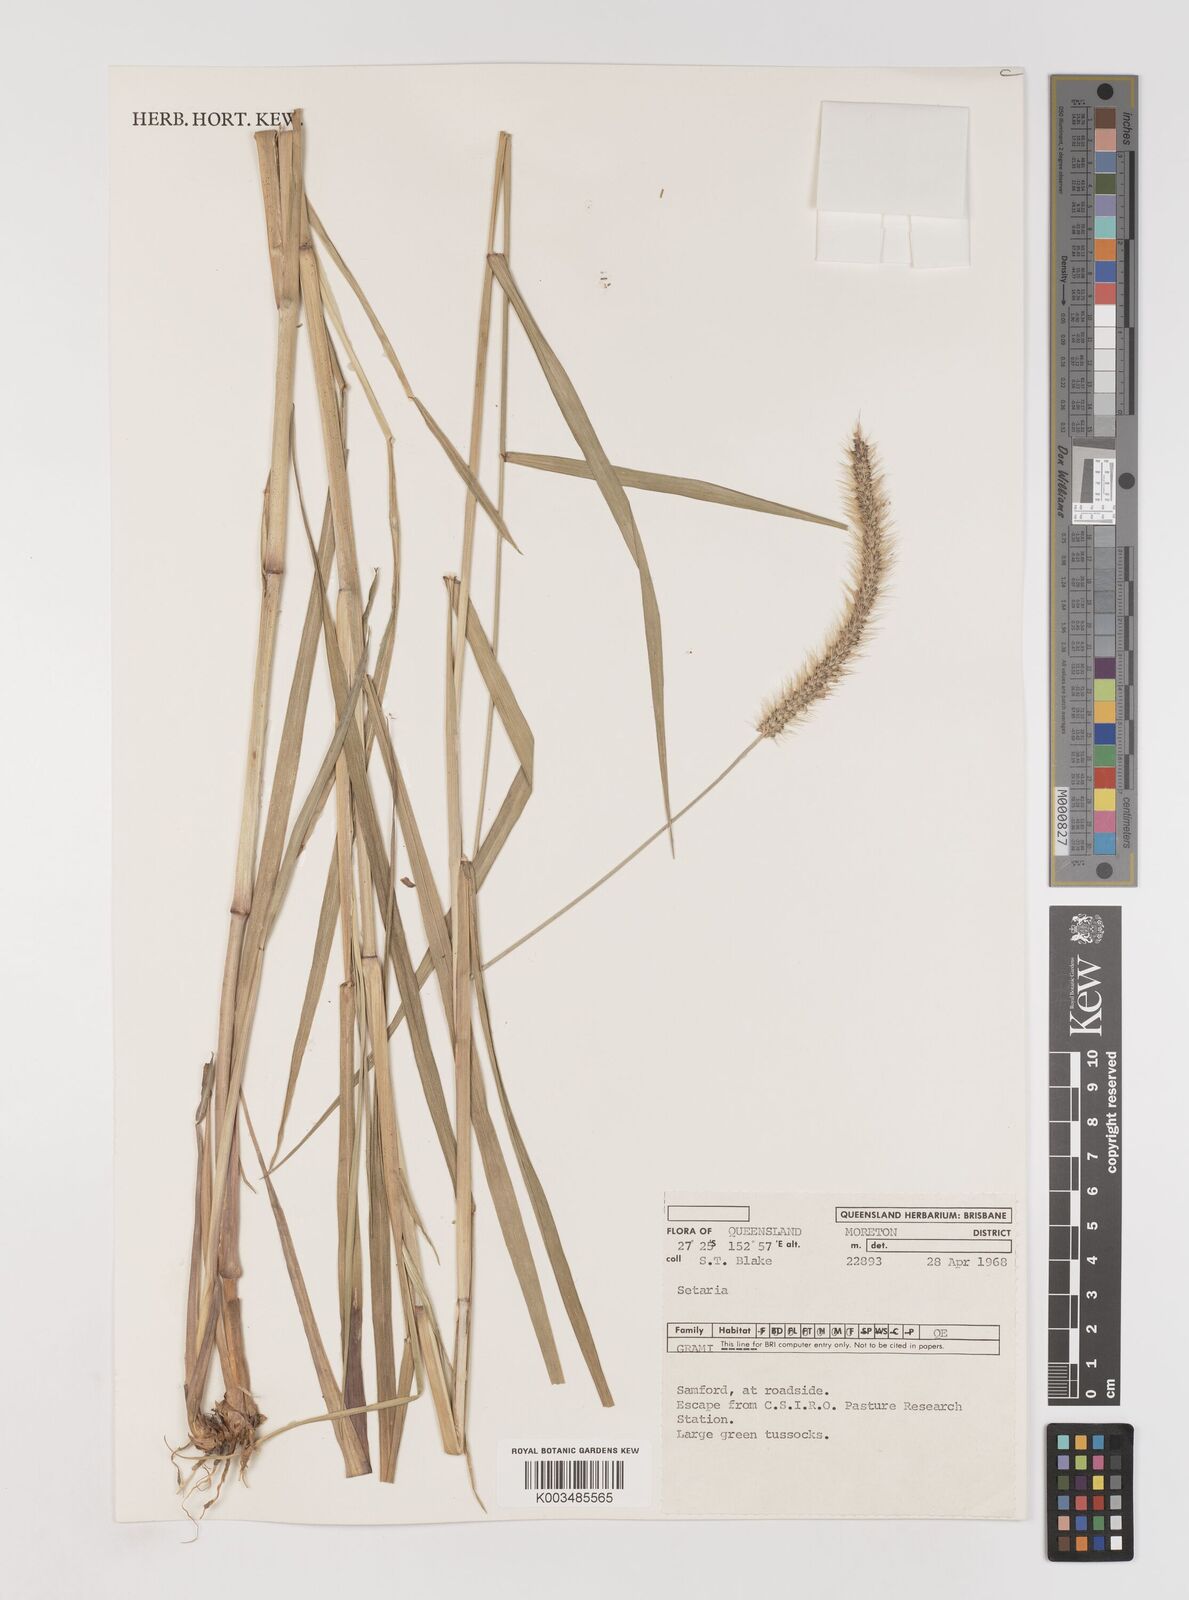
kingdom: Plantae
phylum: Tracheophyta
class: Liliopsida
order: Poales
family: Poaceae
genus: Setaria
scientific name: Setaria
